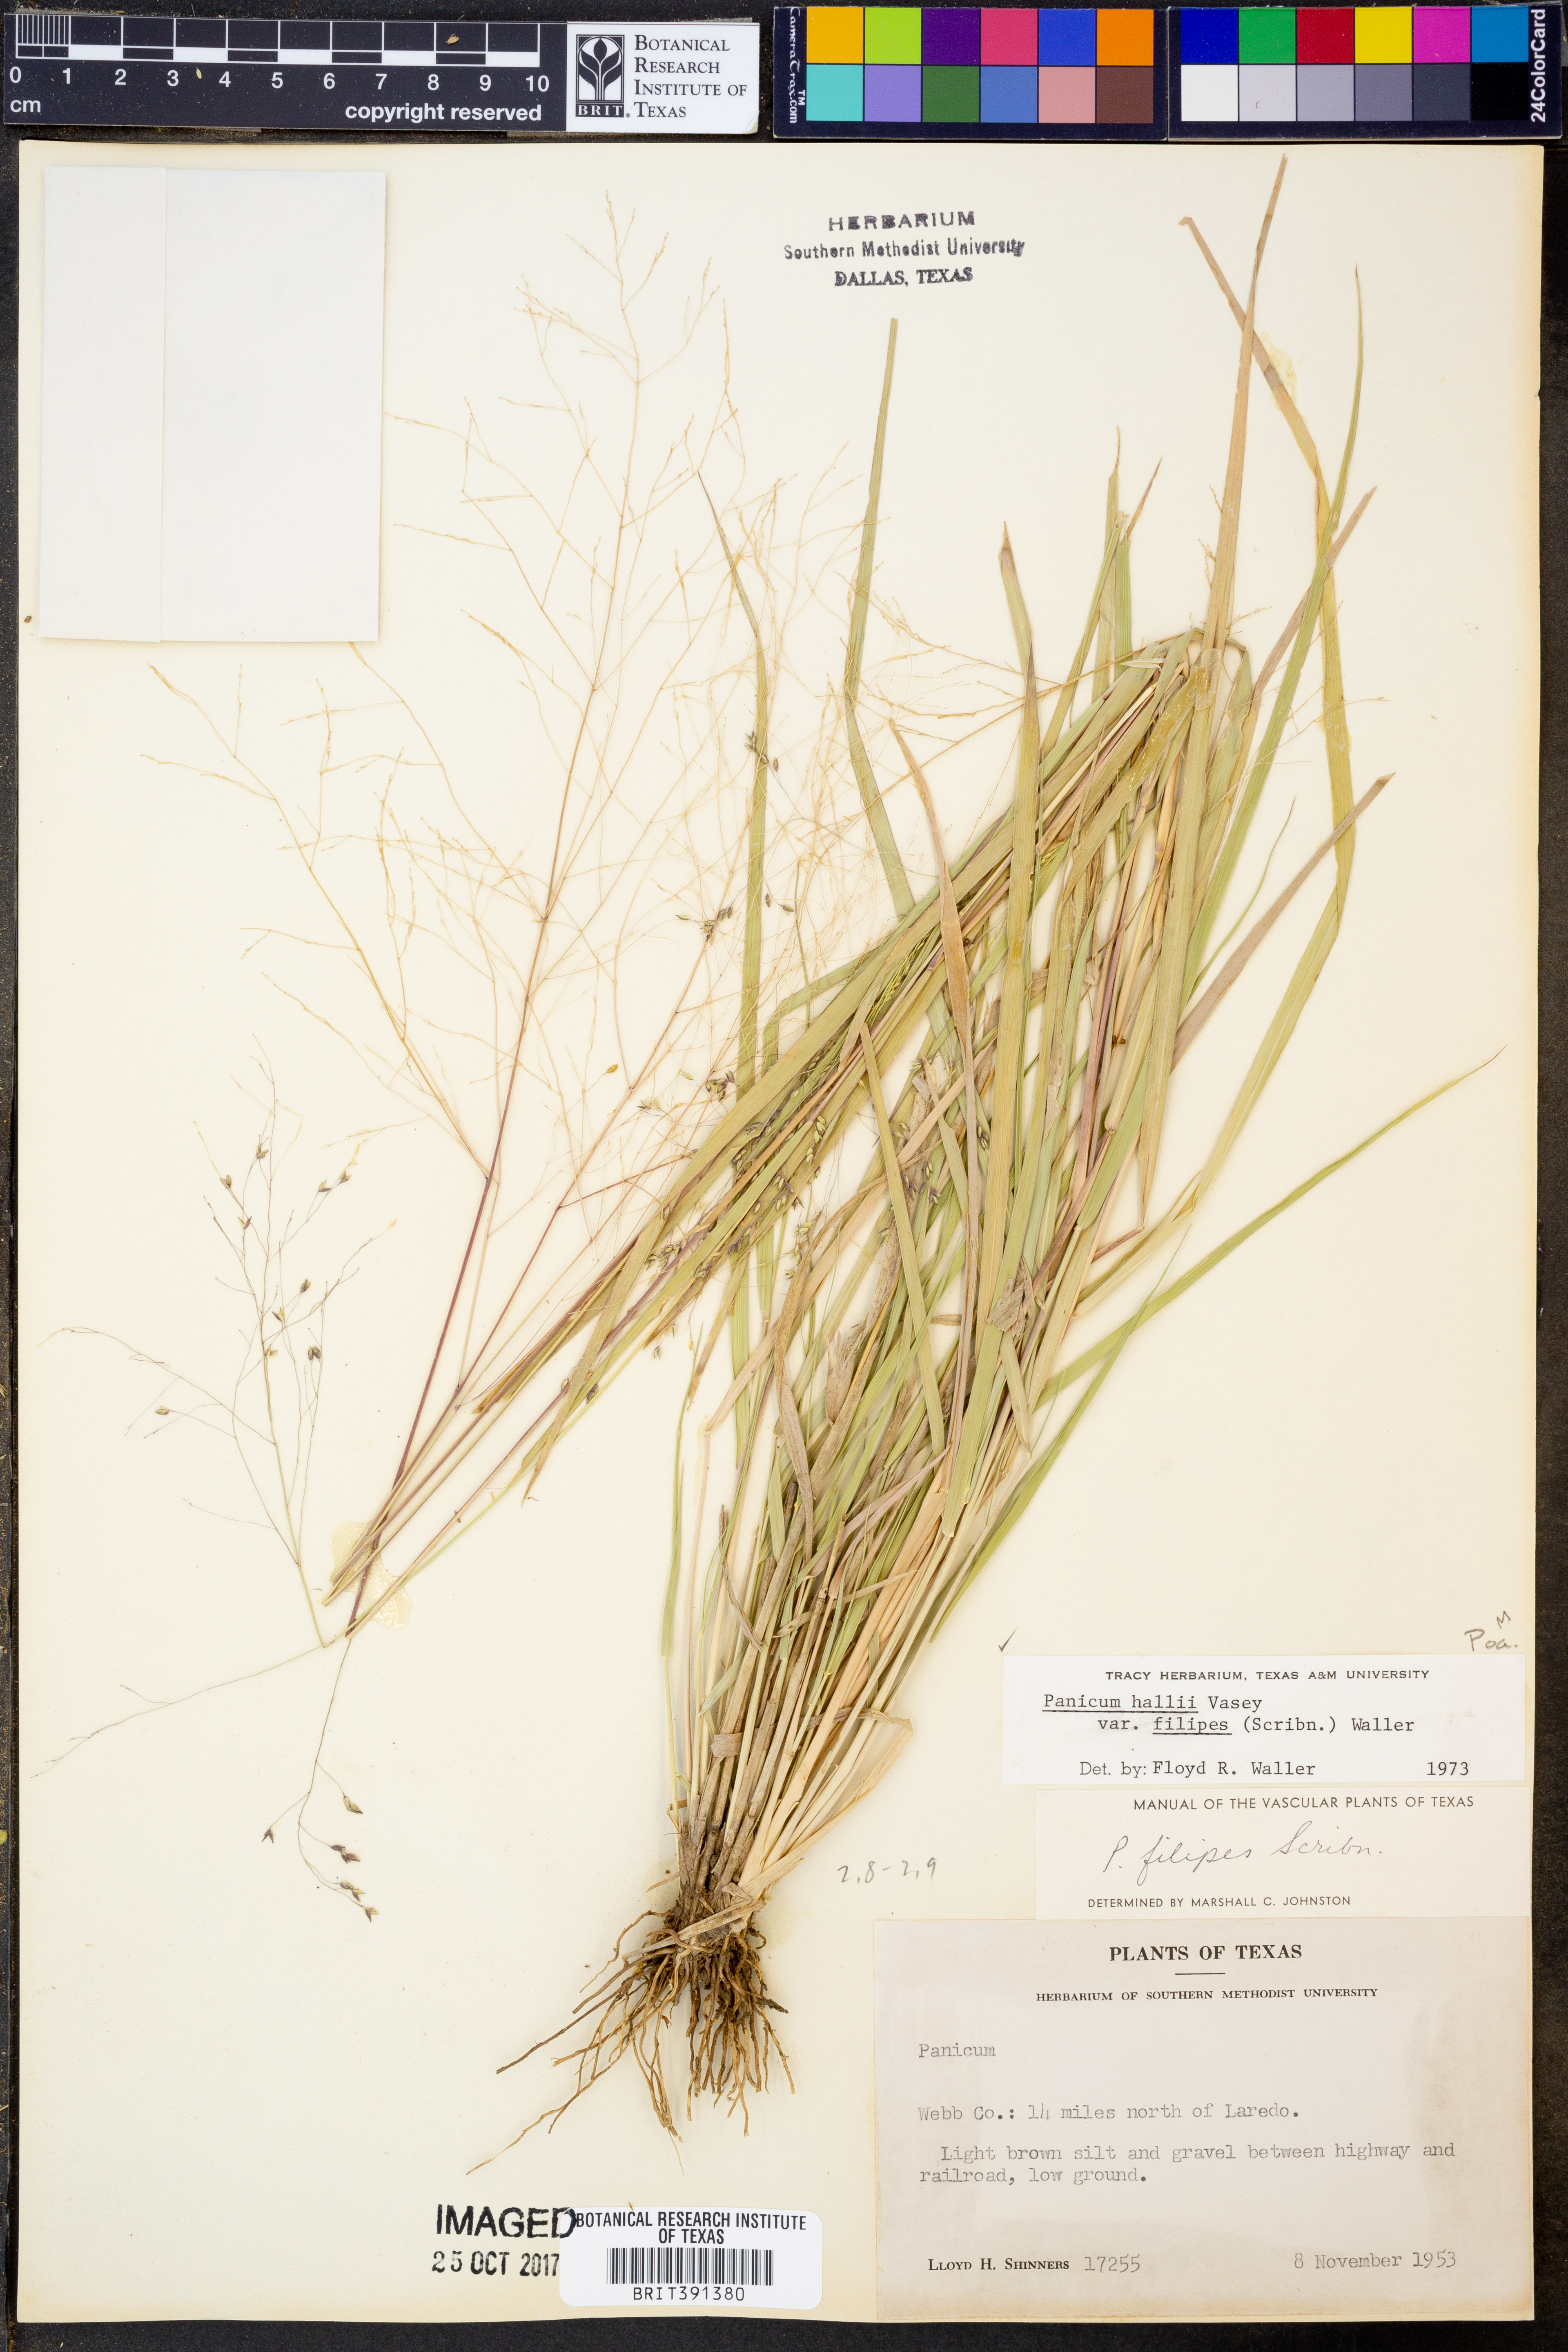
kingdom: Plantae
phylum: Tracheophyta
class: Liliopsida
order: Poales
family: Poaceae
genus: Panicum
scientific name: Panicum hallii
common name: Hall's witchgrass
